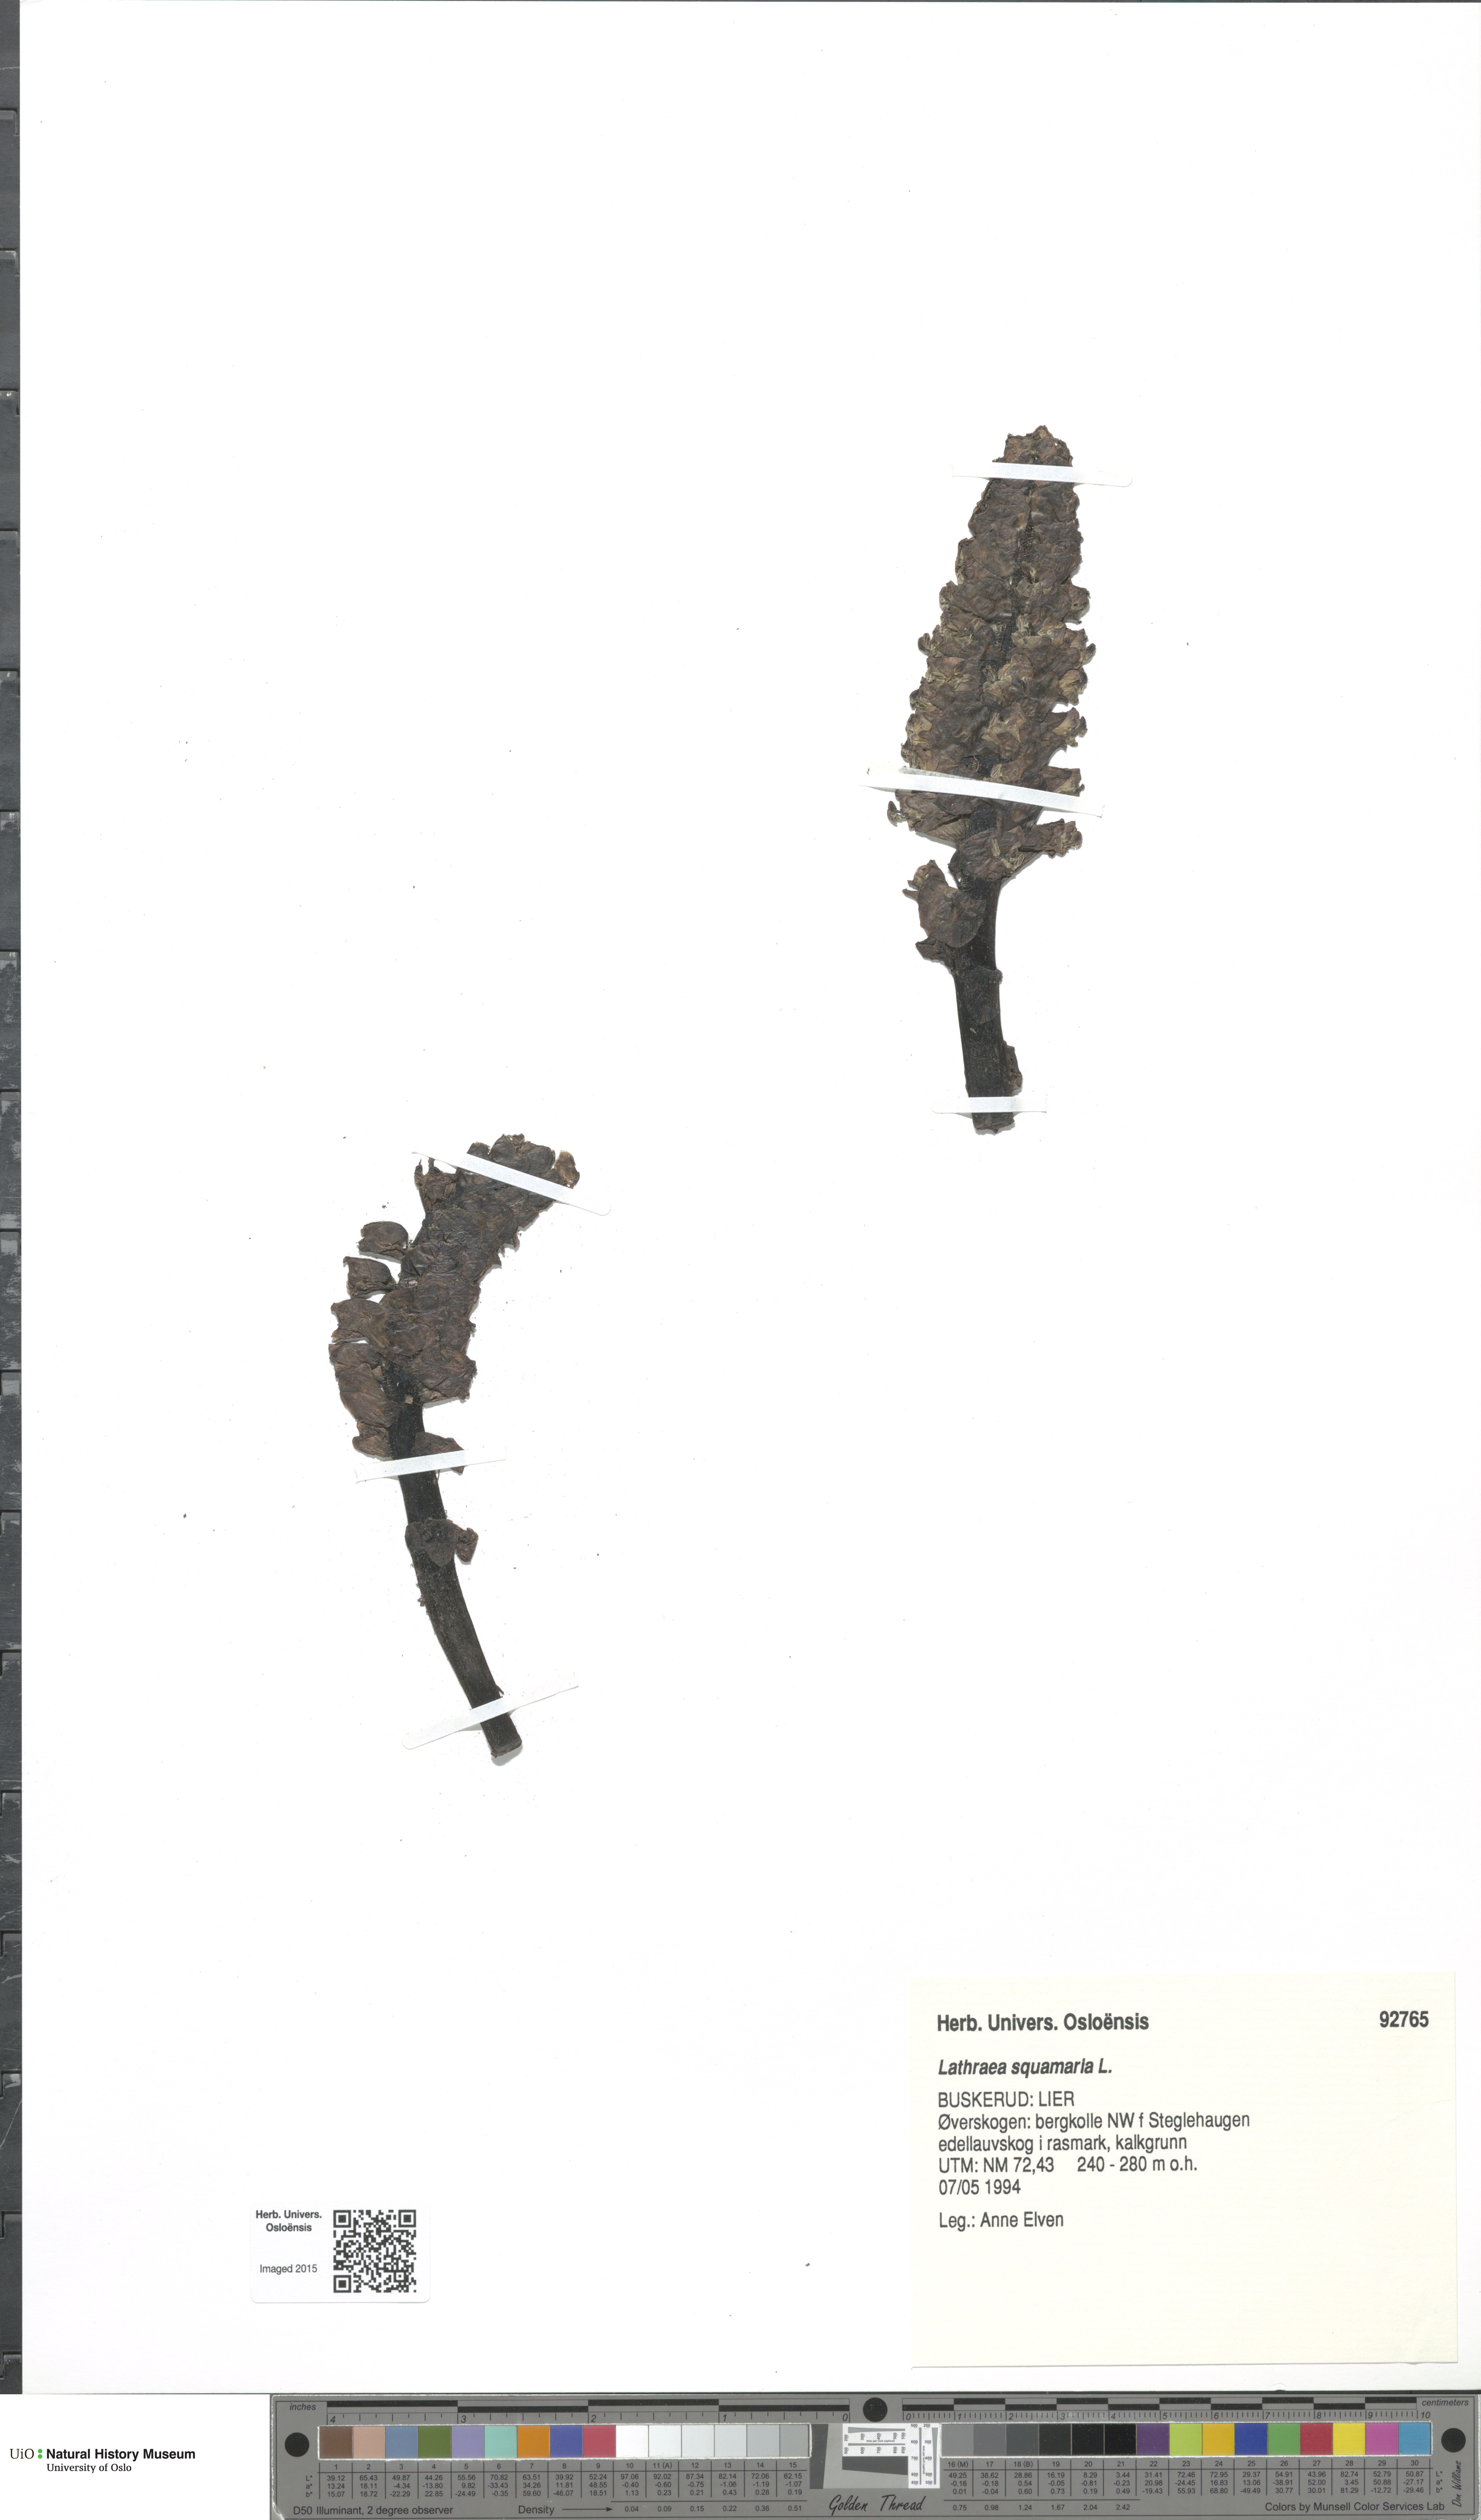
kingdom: Plantae
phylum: Tracheophyta
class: Magnoliopsida
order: Lamiales
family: Orobanchaceae
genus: Lathraea
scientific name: Lathraea squamaria
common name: Toothwort
